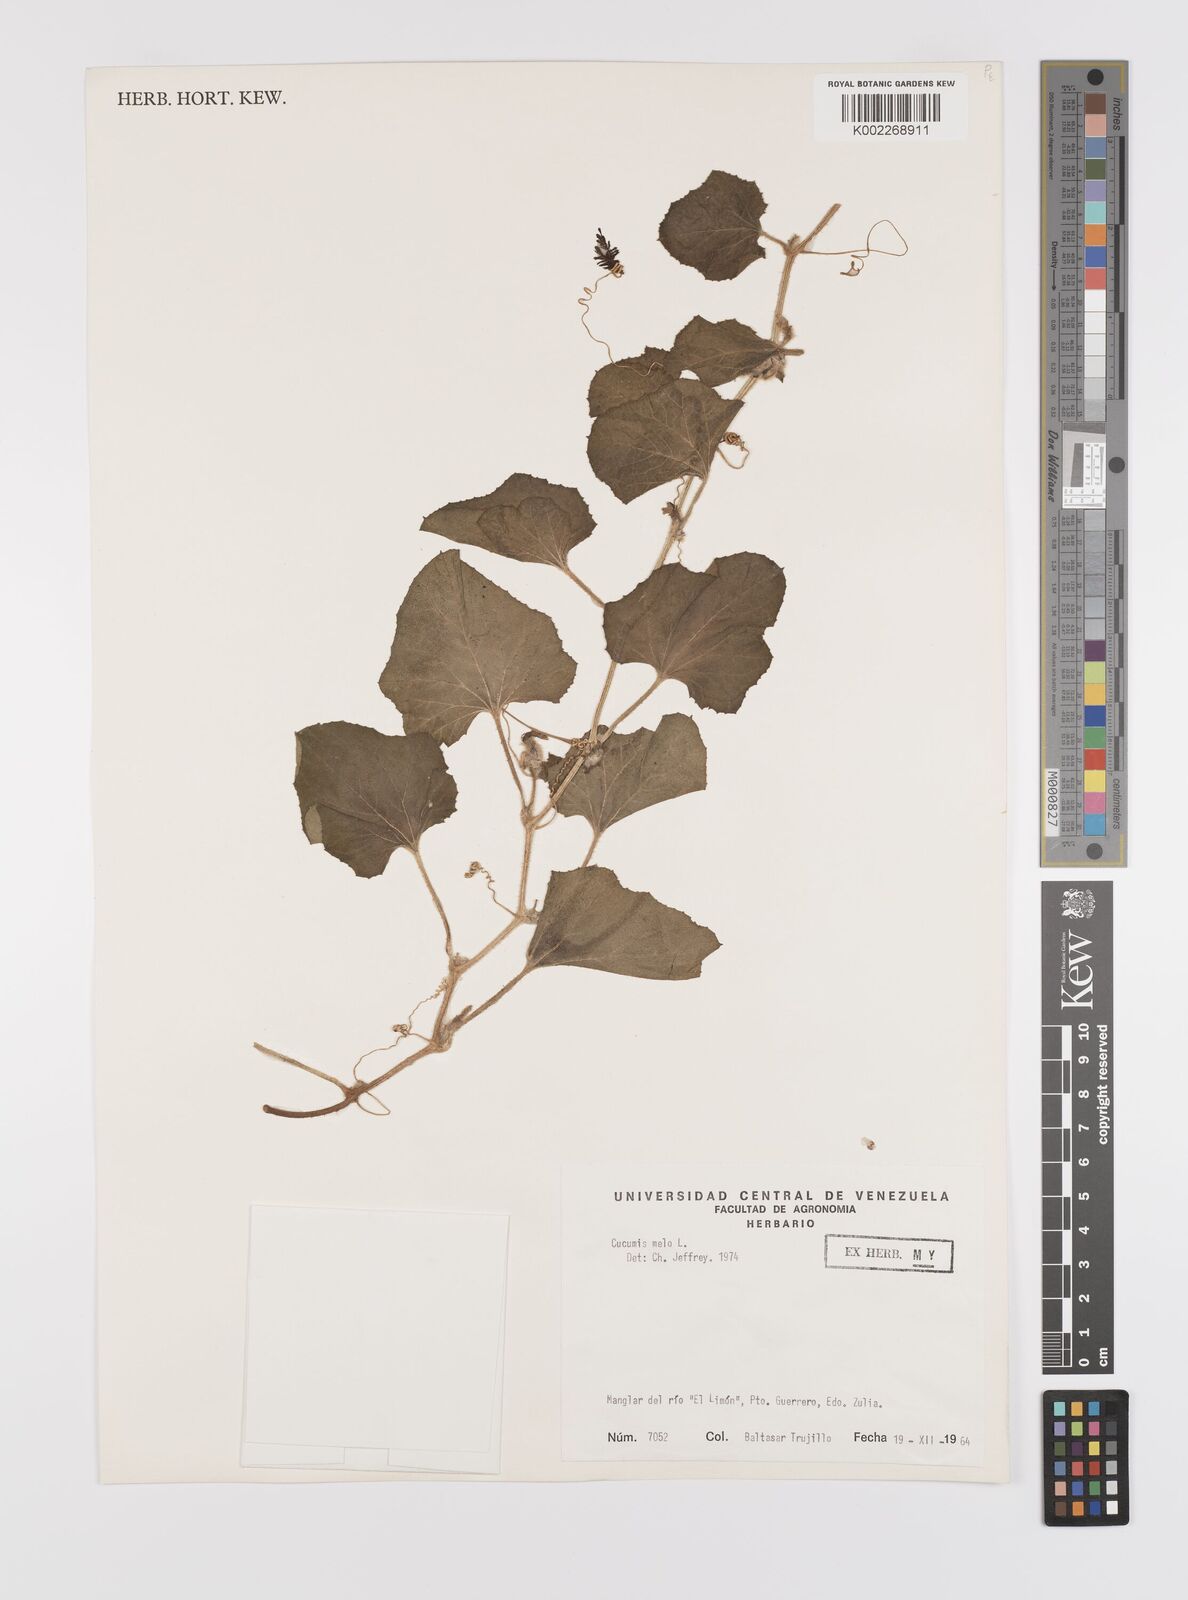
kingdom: Plantae
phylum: Tracheophyta
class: Magnoliopsida
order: Cucurbitales
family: Cucurbitaceae
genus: Cucumis
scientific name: Cucumis melo
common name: Melon
